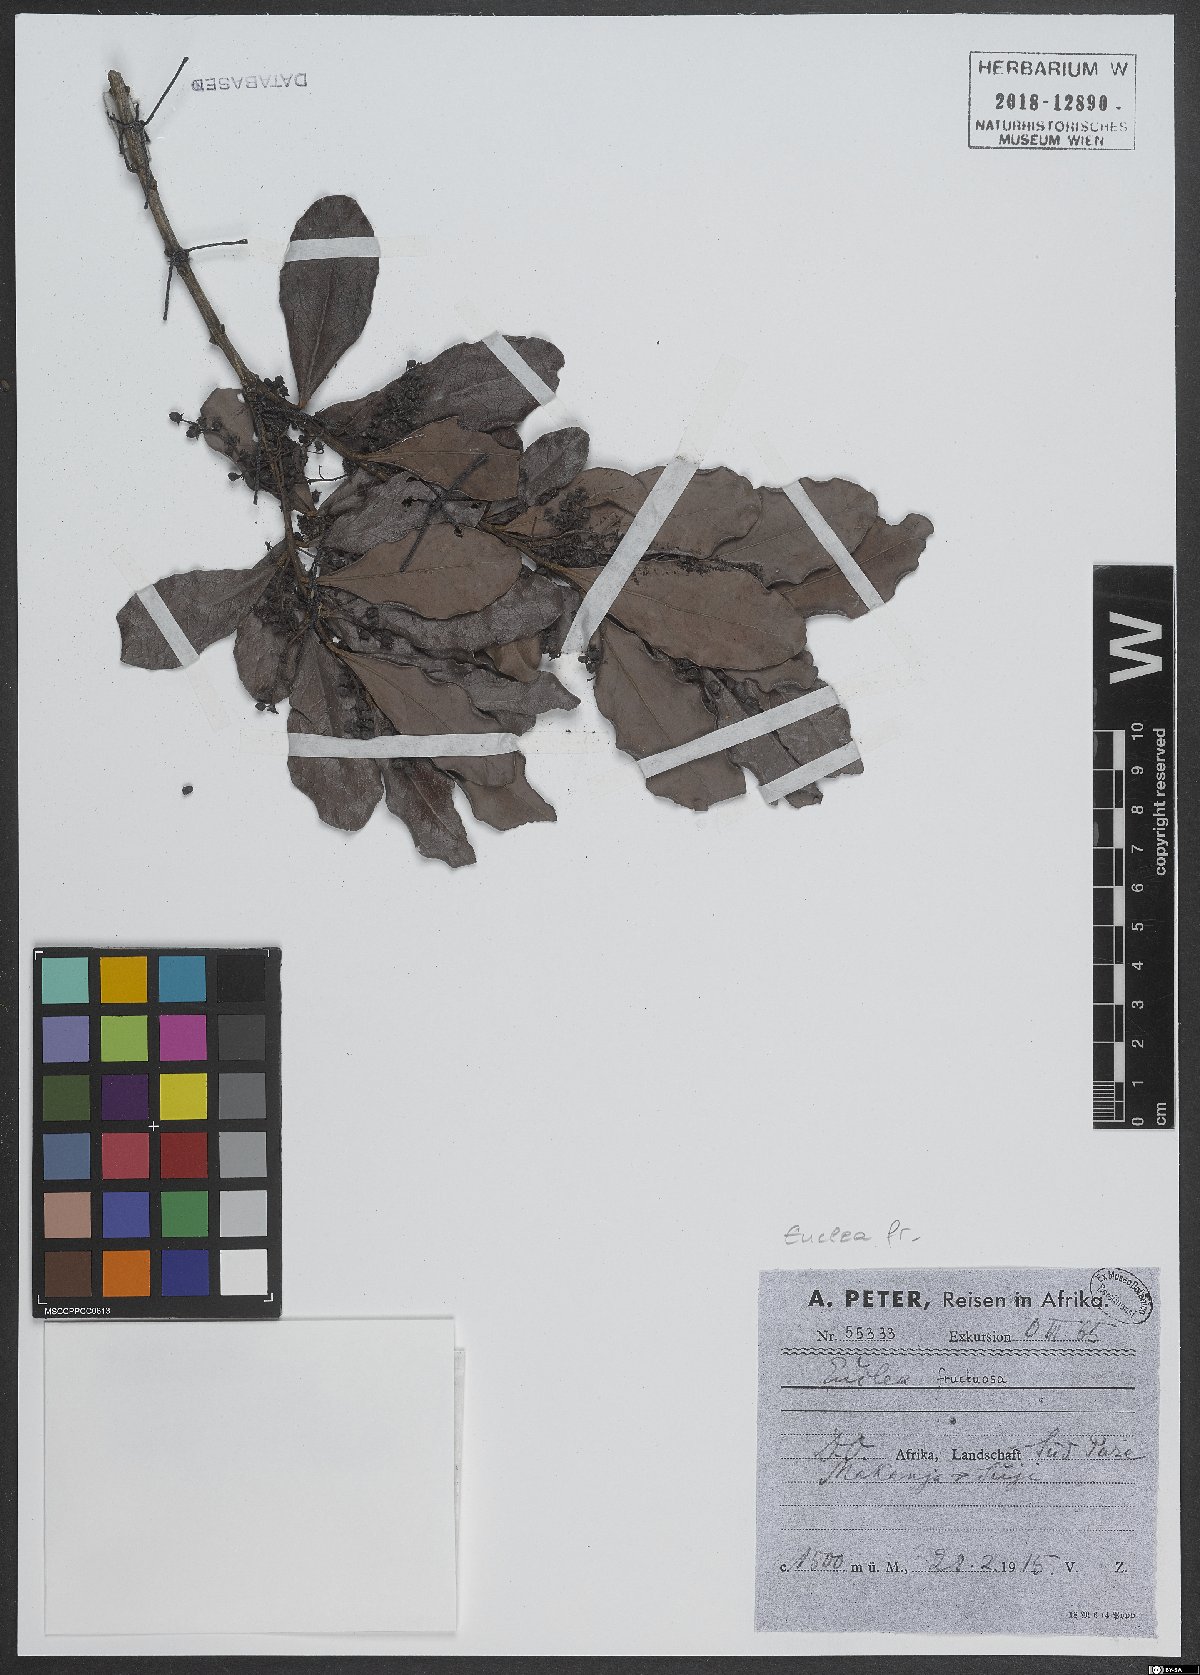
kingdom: Plantae
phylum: Tracheophyta
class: Magnoliopsida
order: Ericales
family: Ebenaceae
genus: Euclea
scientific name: Euclea natalensis
